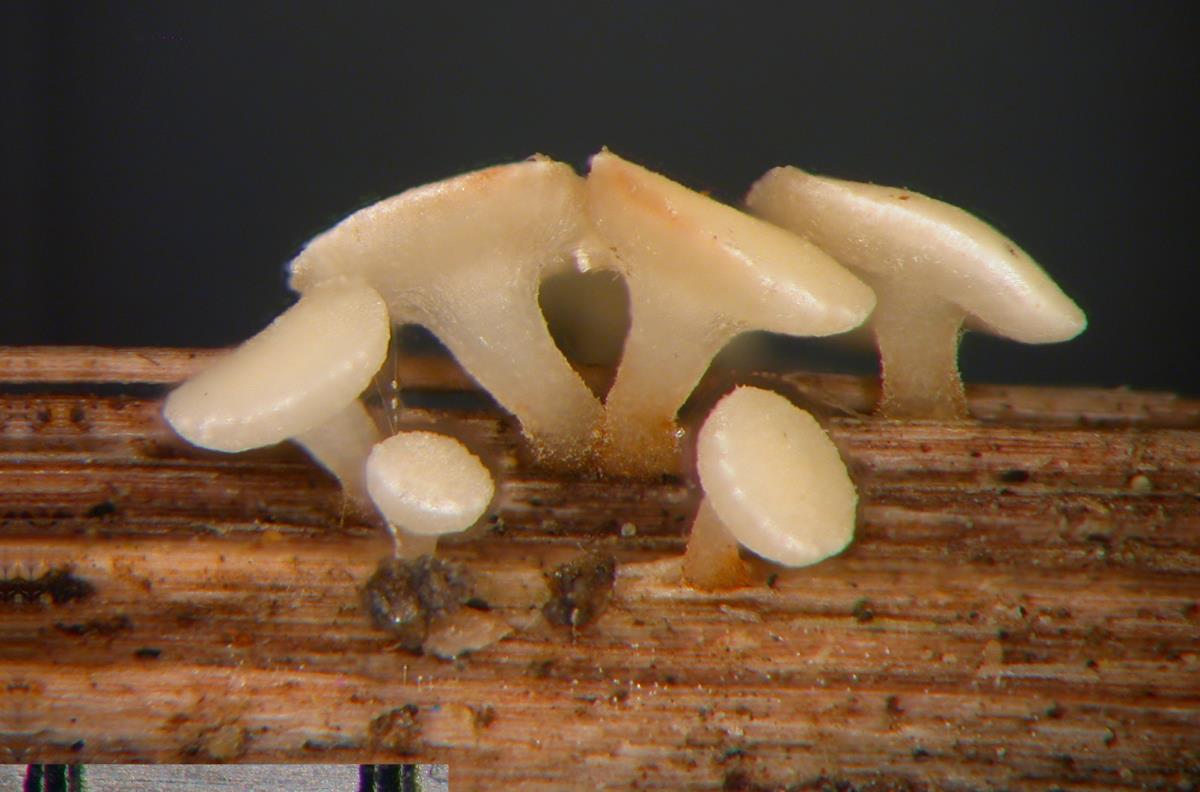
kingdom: Fungi
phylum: Ascomycota
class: Leotiomycetes
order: Helotiales
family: Helotiaceae
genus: Hymenoscyphus
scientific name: Hymenoscyphus scutula
